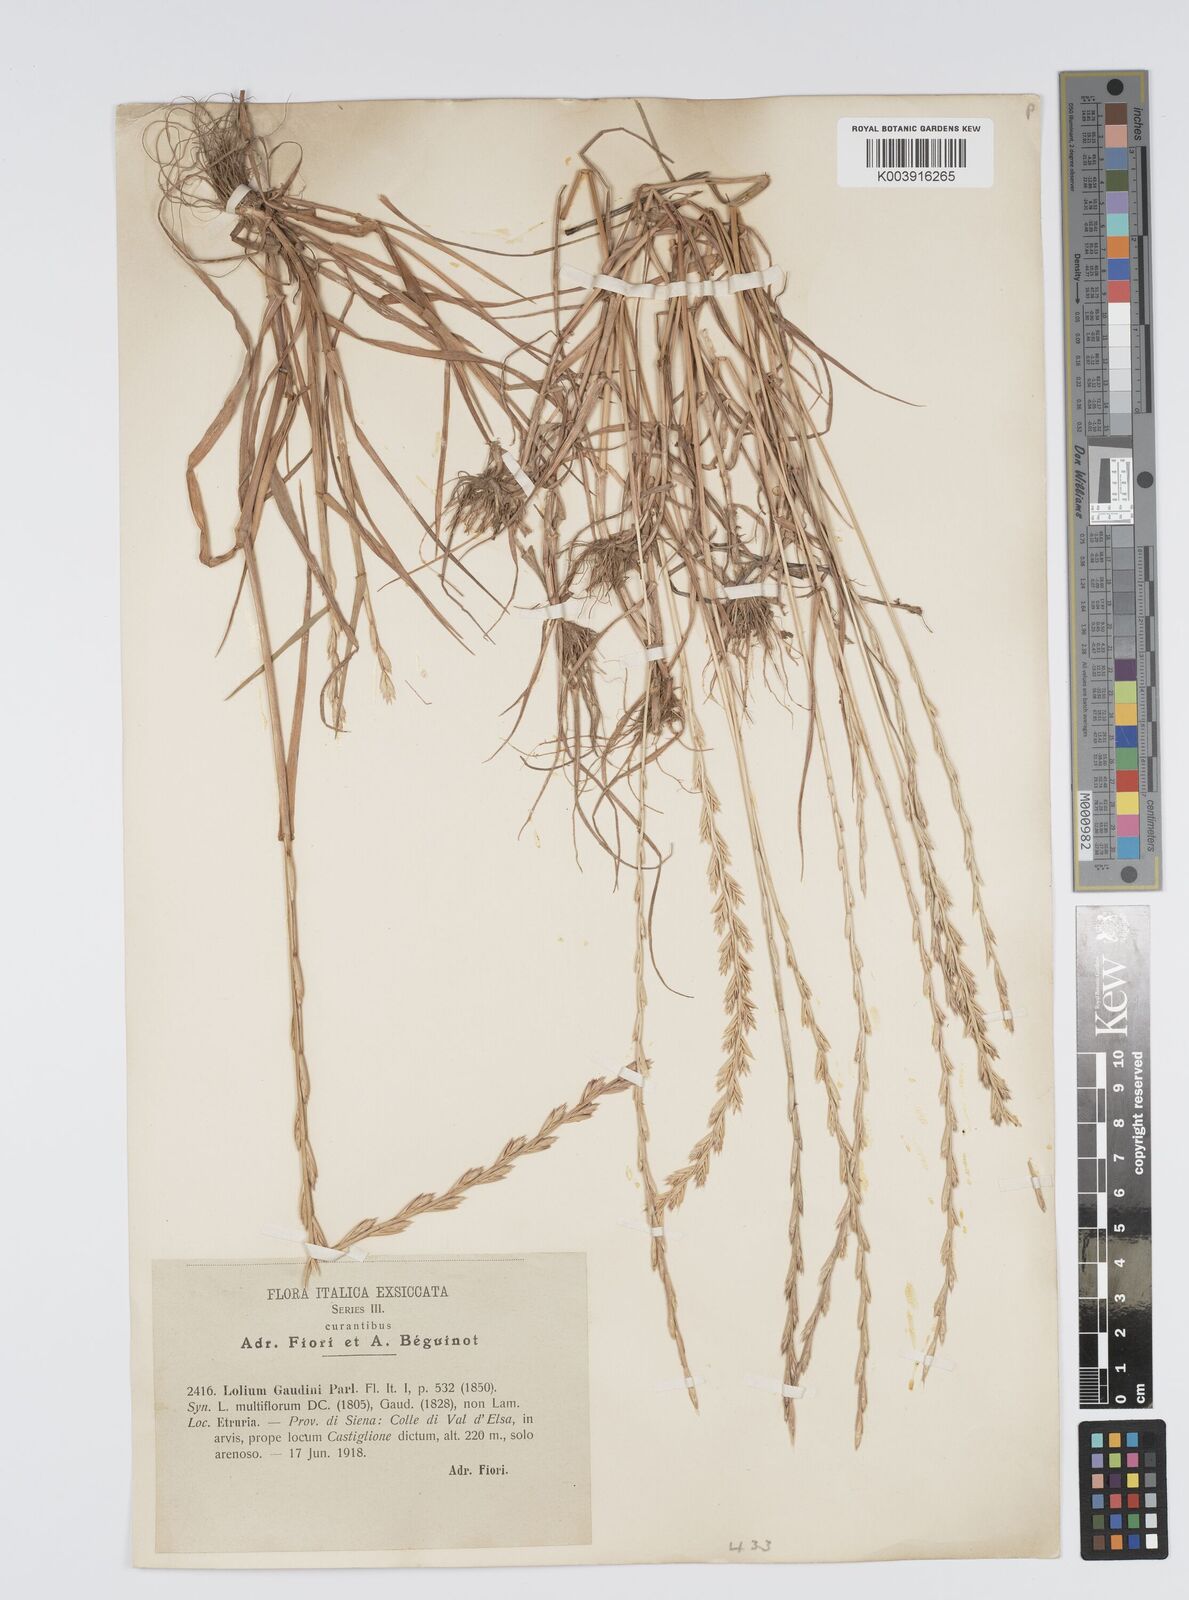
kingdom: Plantae
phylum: Tracheophyta
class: Liliopsida
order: Poales
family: Poaceae
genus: Lolium
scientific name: Lolium rigidum
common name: Wimmera ryegrass
